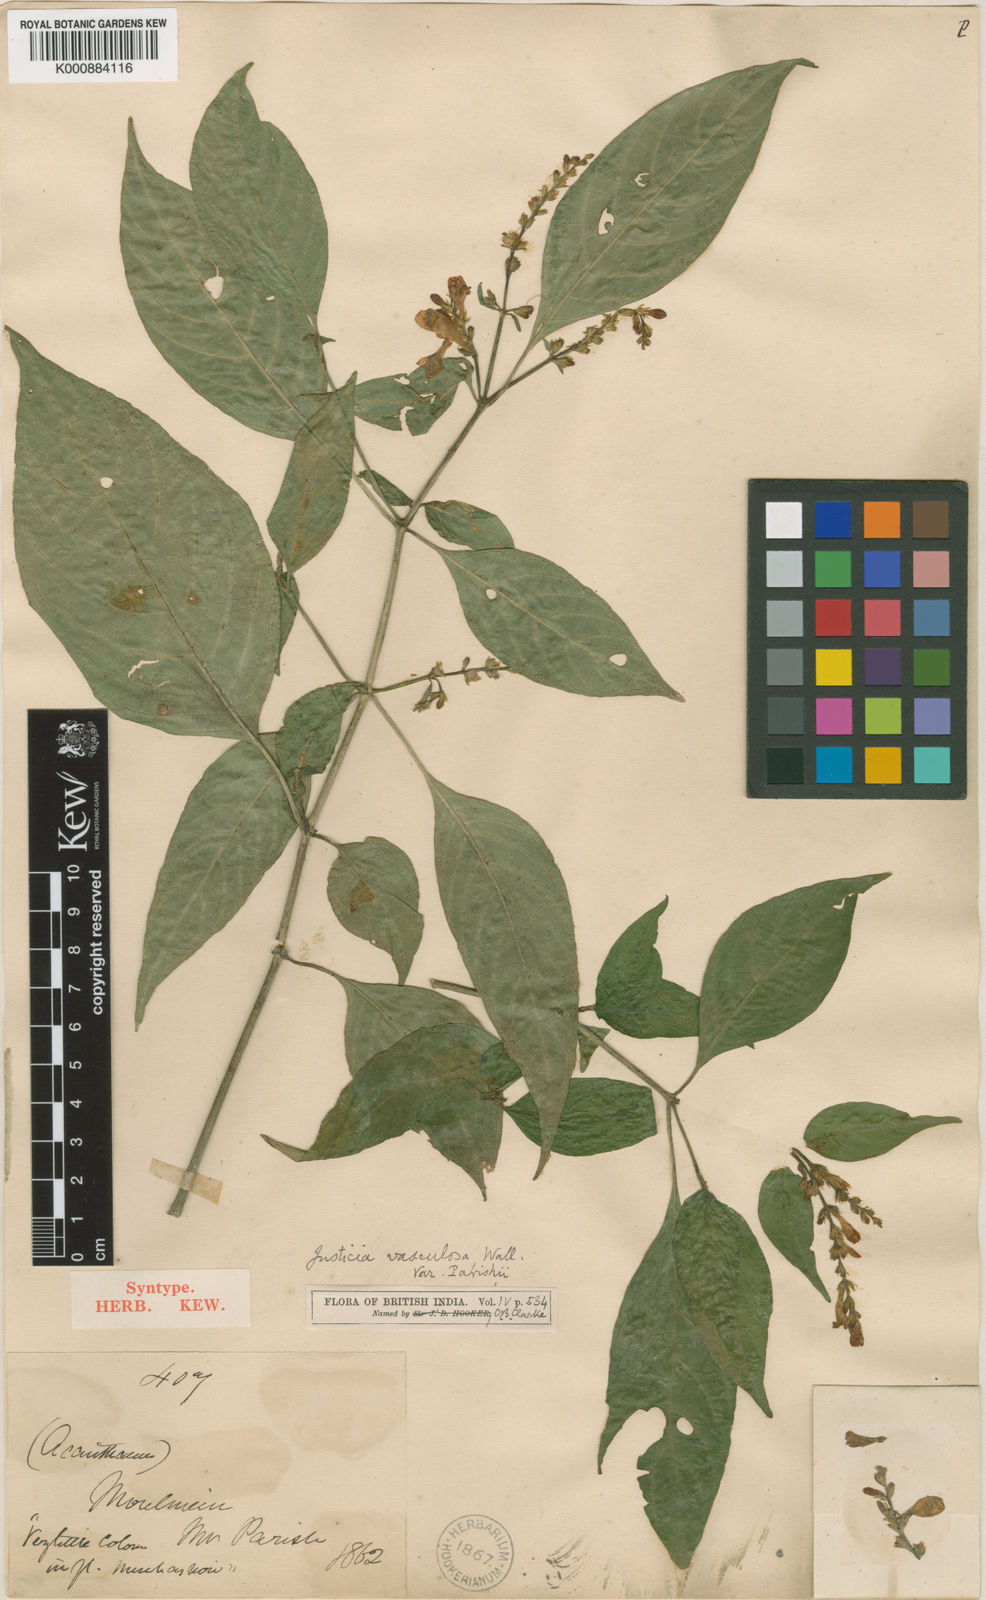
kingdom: Plantae
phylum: Tracheophyta
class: Magnoliopsida
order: Lamiales
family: Acanthaceae
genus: Justicia
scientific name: Justicia
